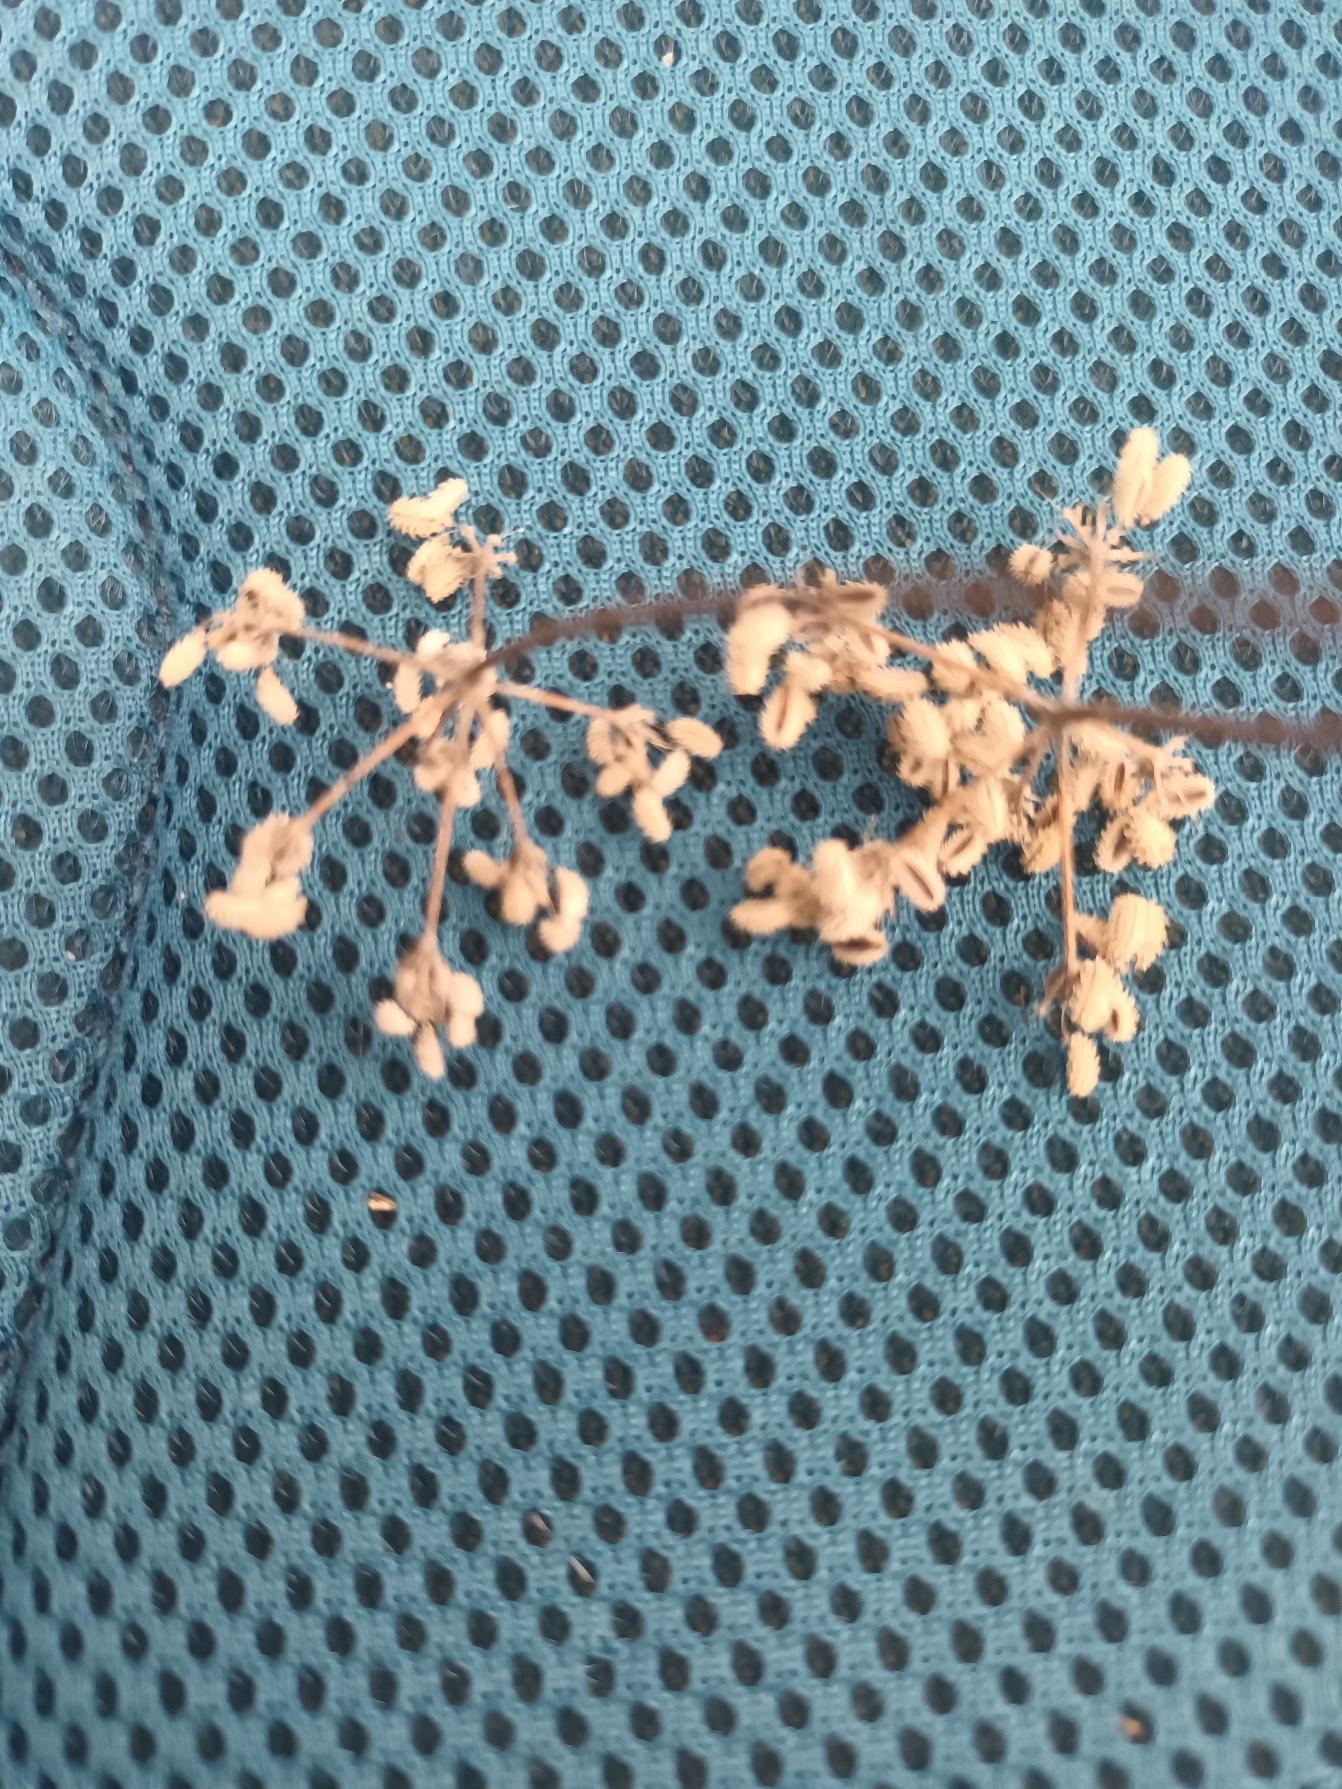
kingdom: Plantae
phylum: Tracheophyta
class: Magnoliopsida
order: Apiales
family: Apiaceae
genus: Torilis
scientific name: Torilis japonica
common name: Hvas randfrø
